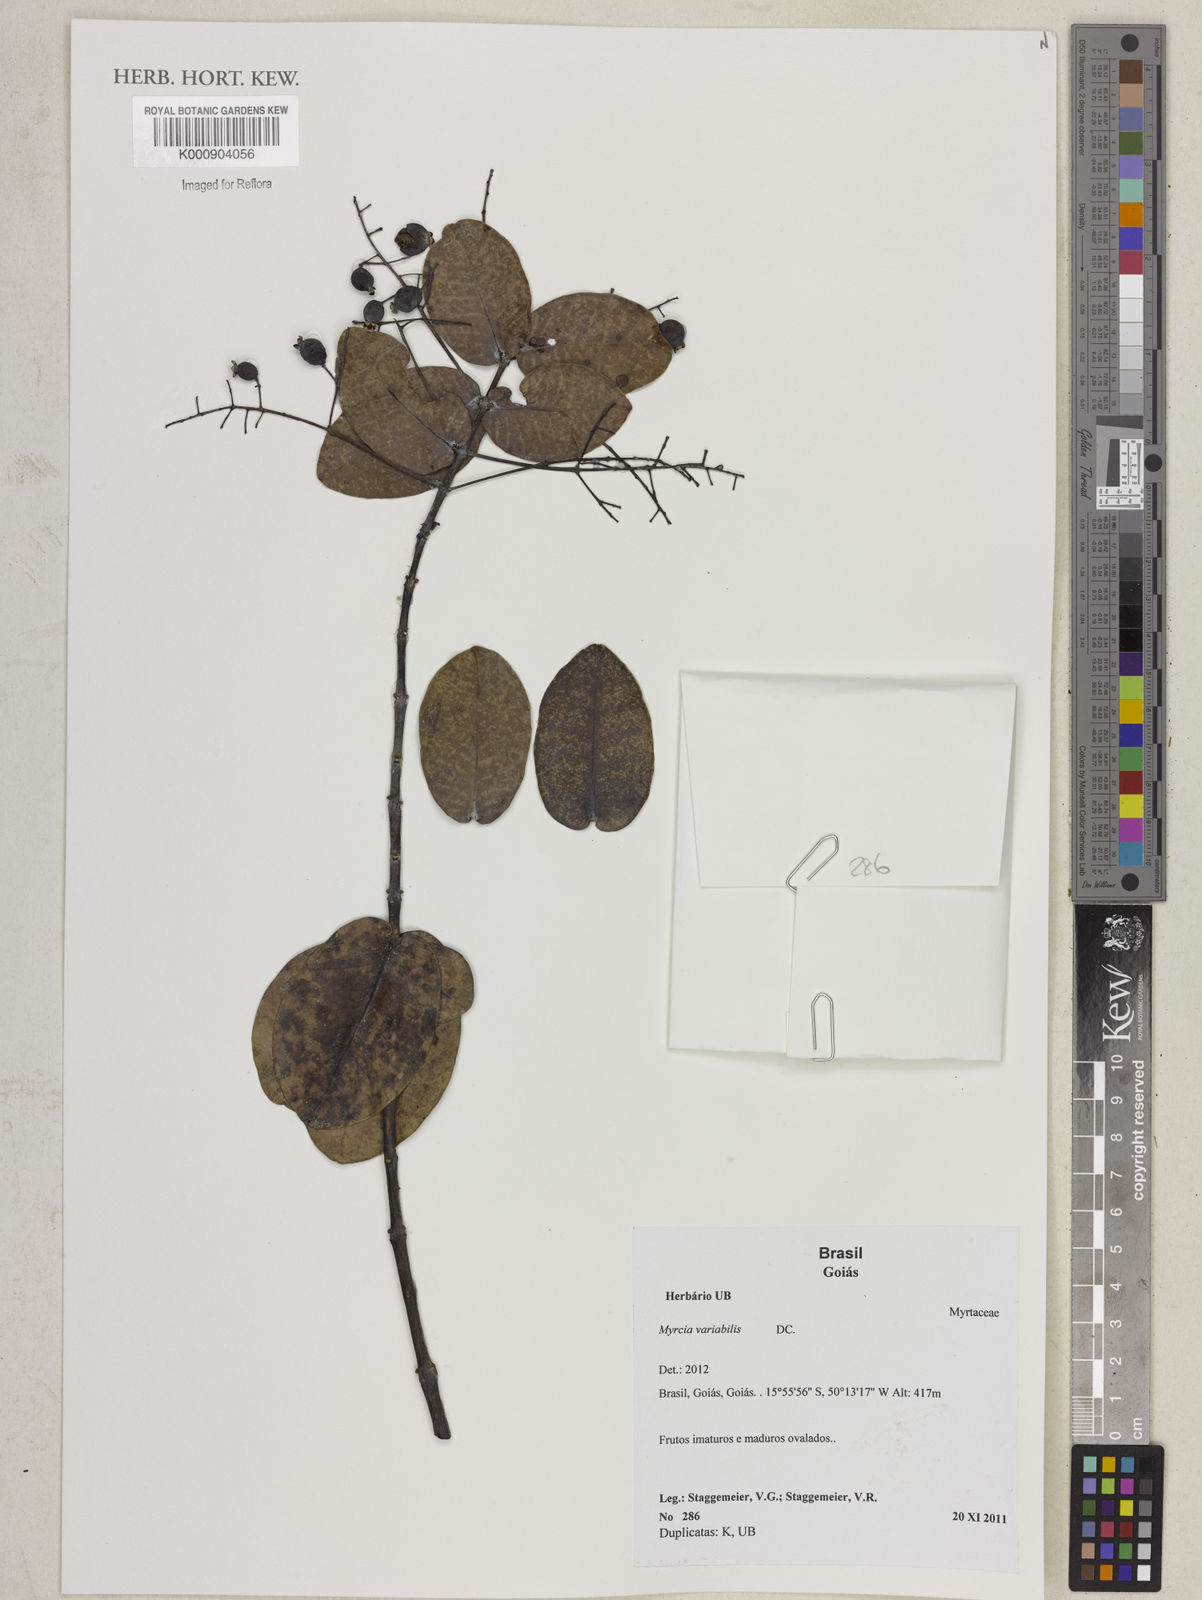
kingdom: Plantae
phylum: Tracheophyta
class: Magnoliopsida
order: Myrtales
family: Myrtaceae
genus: Myrcia
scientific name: Myrcia variabilis
